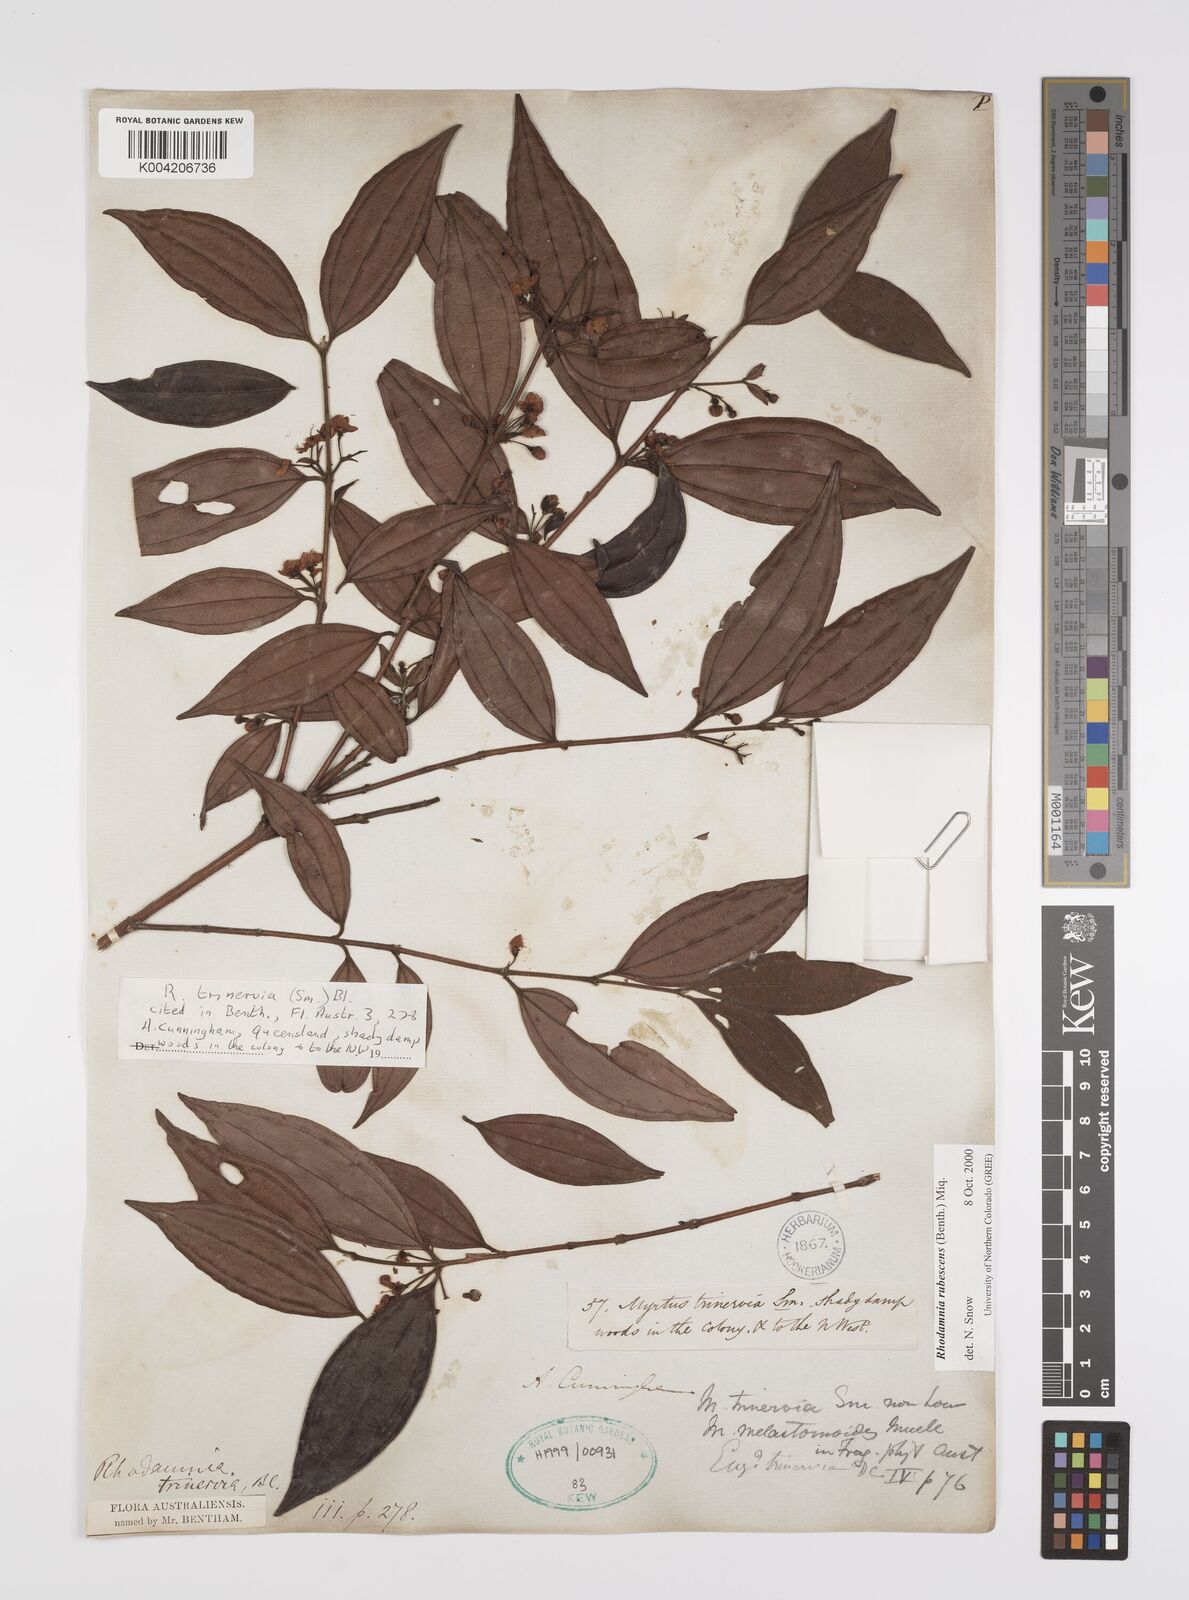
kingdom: Plantae
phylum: Tracheophyta
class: Magnoliopsida
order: Myrtales
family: Myrtaceae
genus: Rhodamnia
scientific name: Rhodamnia rubescens
